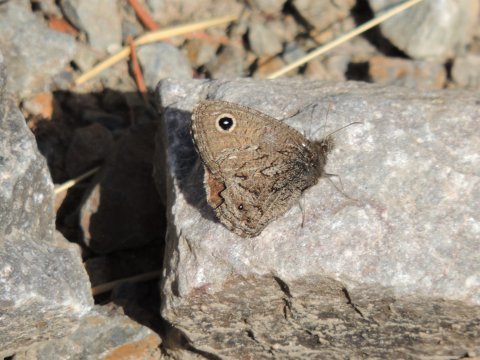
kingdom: Animalia
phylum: Arthropoda
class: Insecta
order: Lepidoptera
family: Nymphalidae
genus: Cercyonis
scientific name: Cercyonis oetus
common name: Small Wood-Nymph
